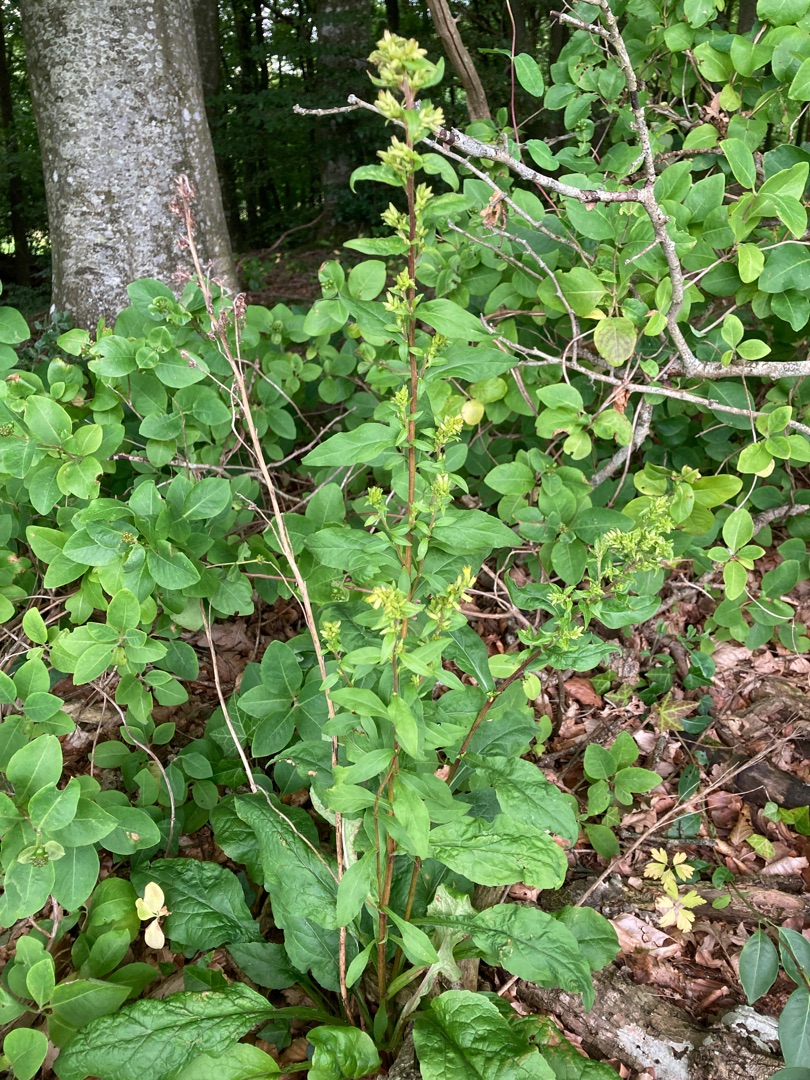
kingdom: Plantae
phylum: Tracheophyta
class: Magnoliopsida
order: Asterales
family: Asteraceae
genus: Solidago
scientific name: Solidago virgaurea
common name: Almindelig gyldenris
